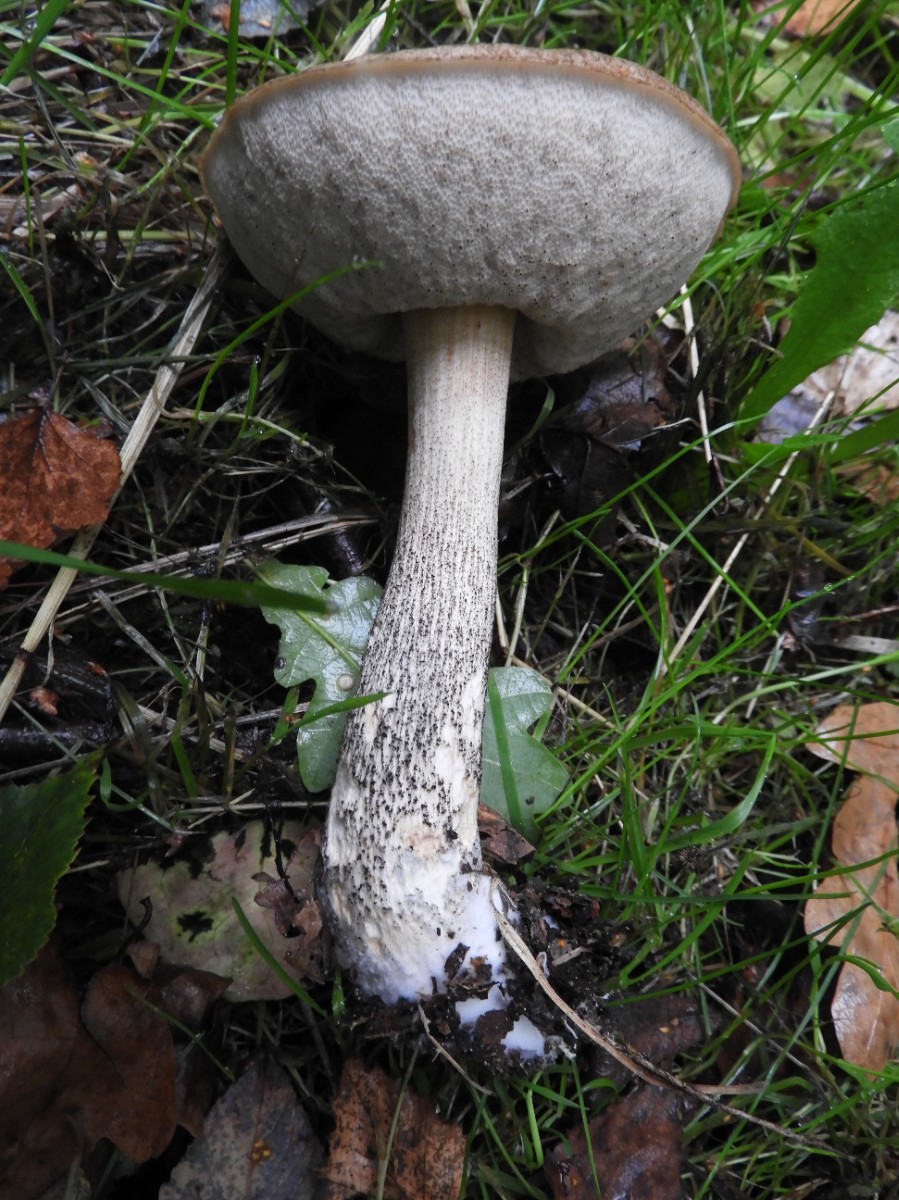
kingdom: Fungi
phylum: Basidiomycota
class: Agaricomycetes
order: Boletales
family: Boletaceae
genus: Leccinum
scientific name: Leccinum scabrum
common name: brun skælrørhat
